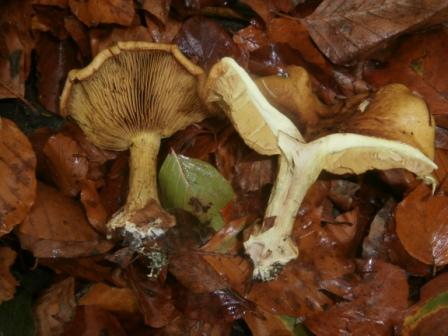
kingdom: Fungi
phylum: Basidiomycota
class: Agaricomycetes
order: Agaricales
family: Cortinariaceae
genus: Calonarius
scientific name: Calonarius citrinus
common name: citrongul slørhat
